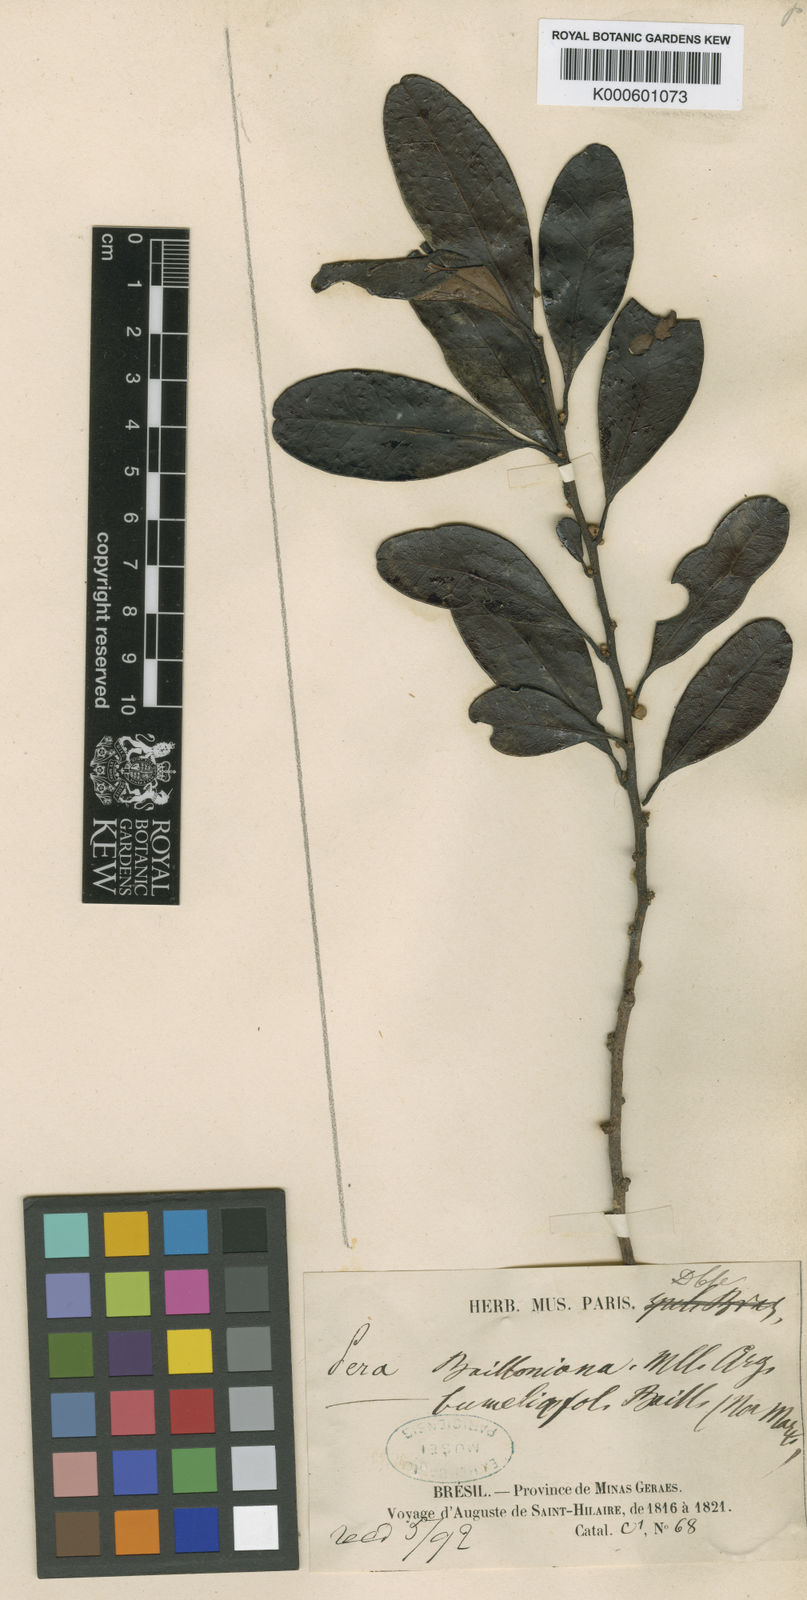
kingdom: Plantae
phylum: Tracheophyta
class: Magnoliopsida
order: Malpighiales
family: Peraceae
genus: Pera
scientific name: Pera
